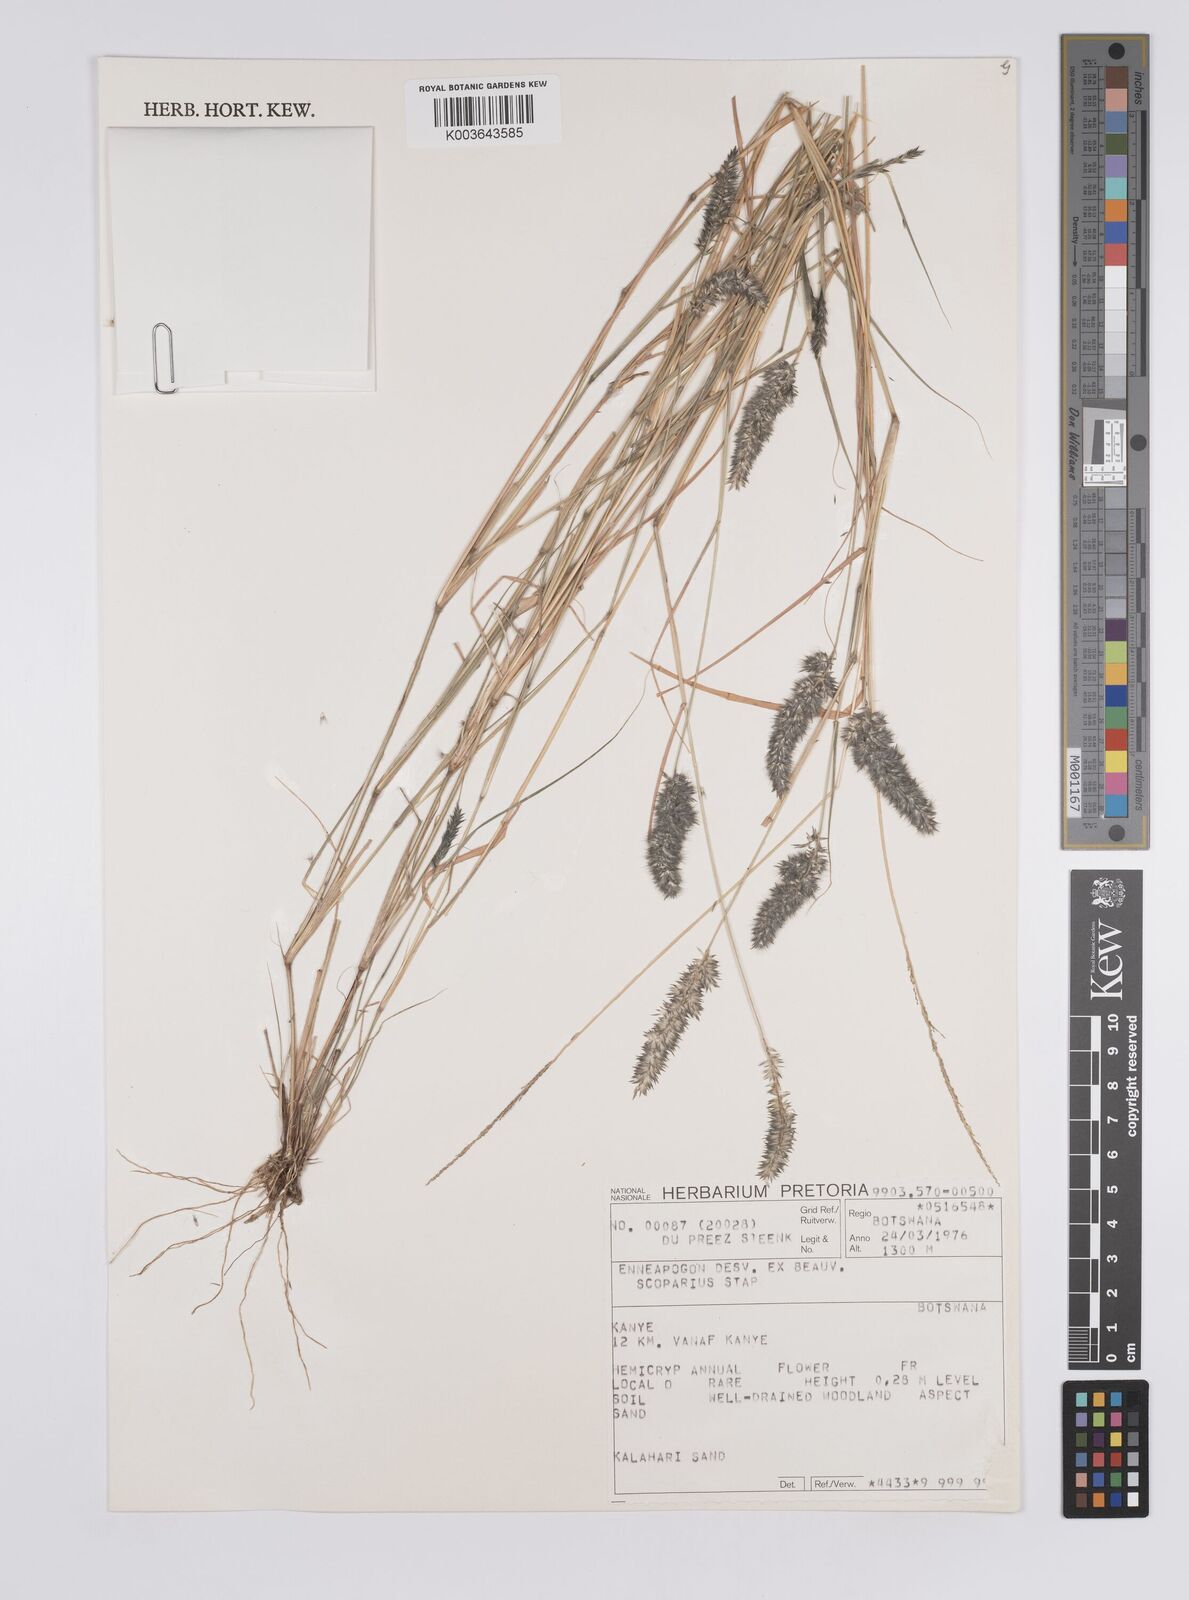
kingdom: Plantae
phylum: Tracheophyta
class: Liliopsida
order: Poales
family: Poaceae
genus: Enneapogon
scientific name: Enneapogon scoparius
